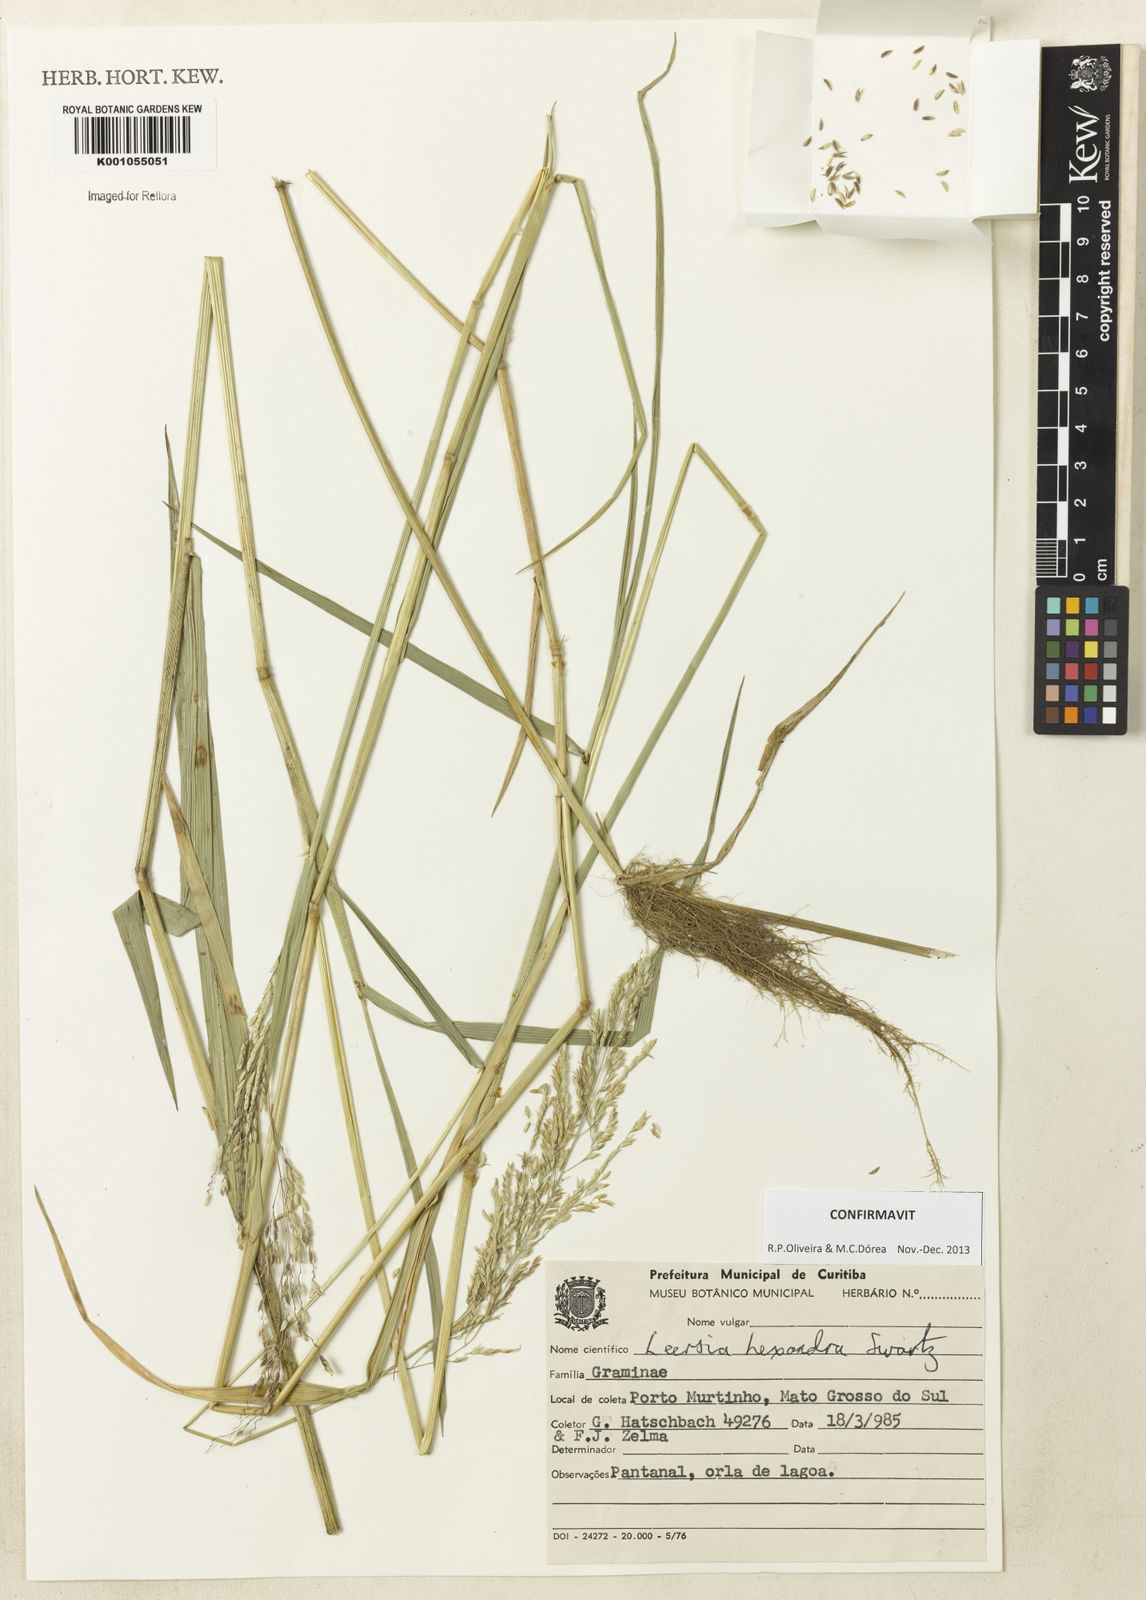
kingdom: Plantae
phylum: Tracheophyta
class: Liliopsida
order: Poales
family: Poaceae
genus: Leersia
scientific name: Leersia hexandra
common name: Southern cut grass
